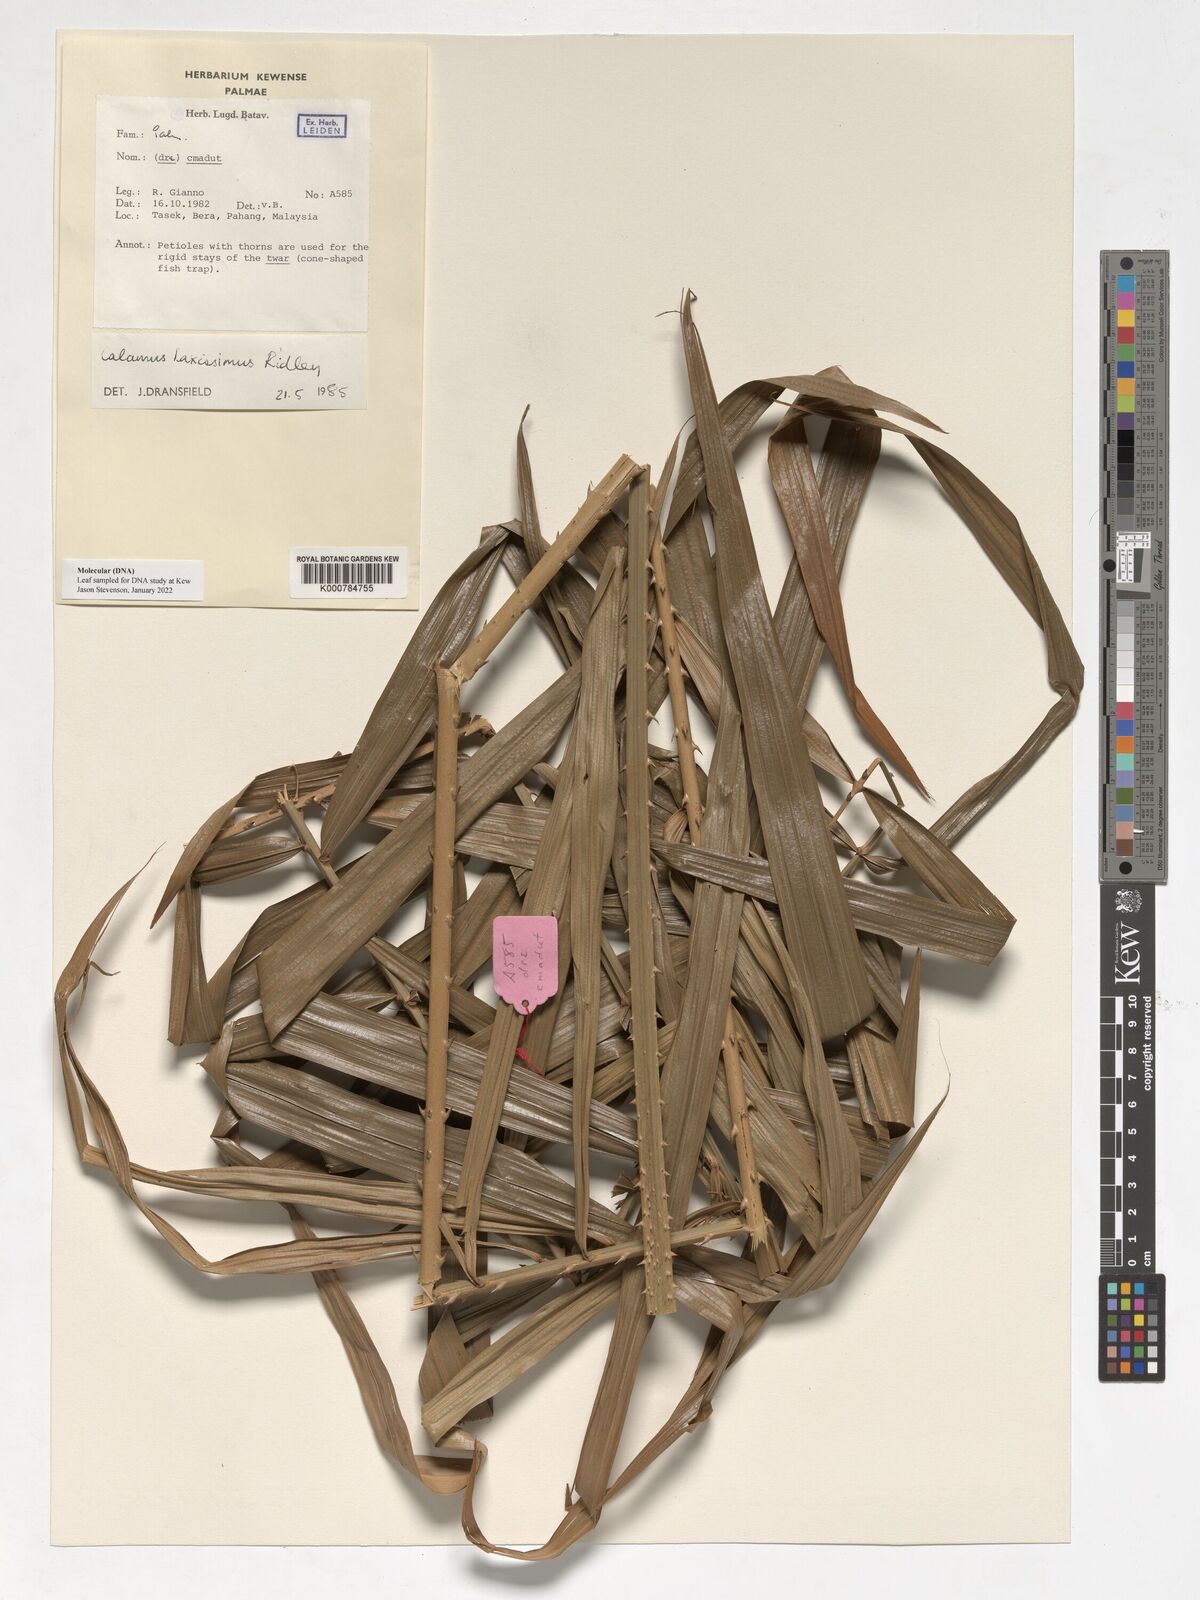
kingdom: Plantae
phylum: Tracheophyta
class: Liliopsida
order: Arecales
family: Arecaceae
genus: Calamus
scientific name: Calamus laxissimus
